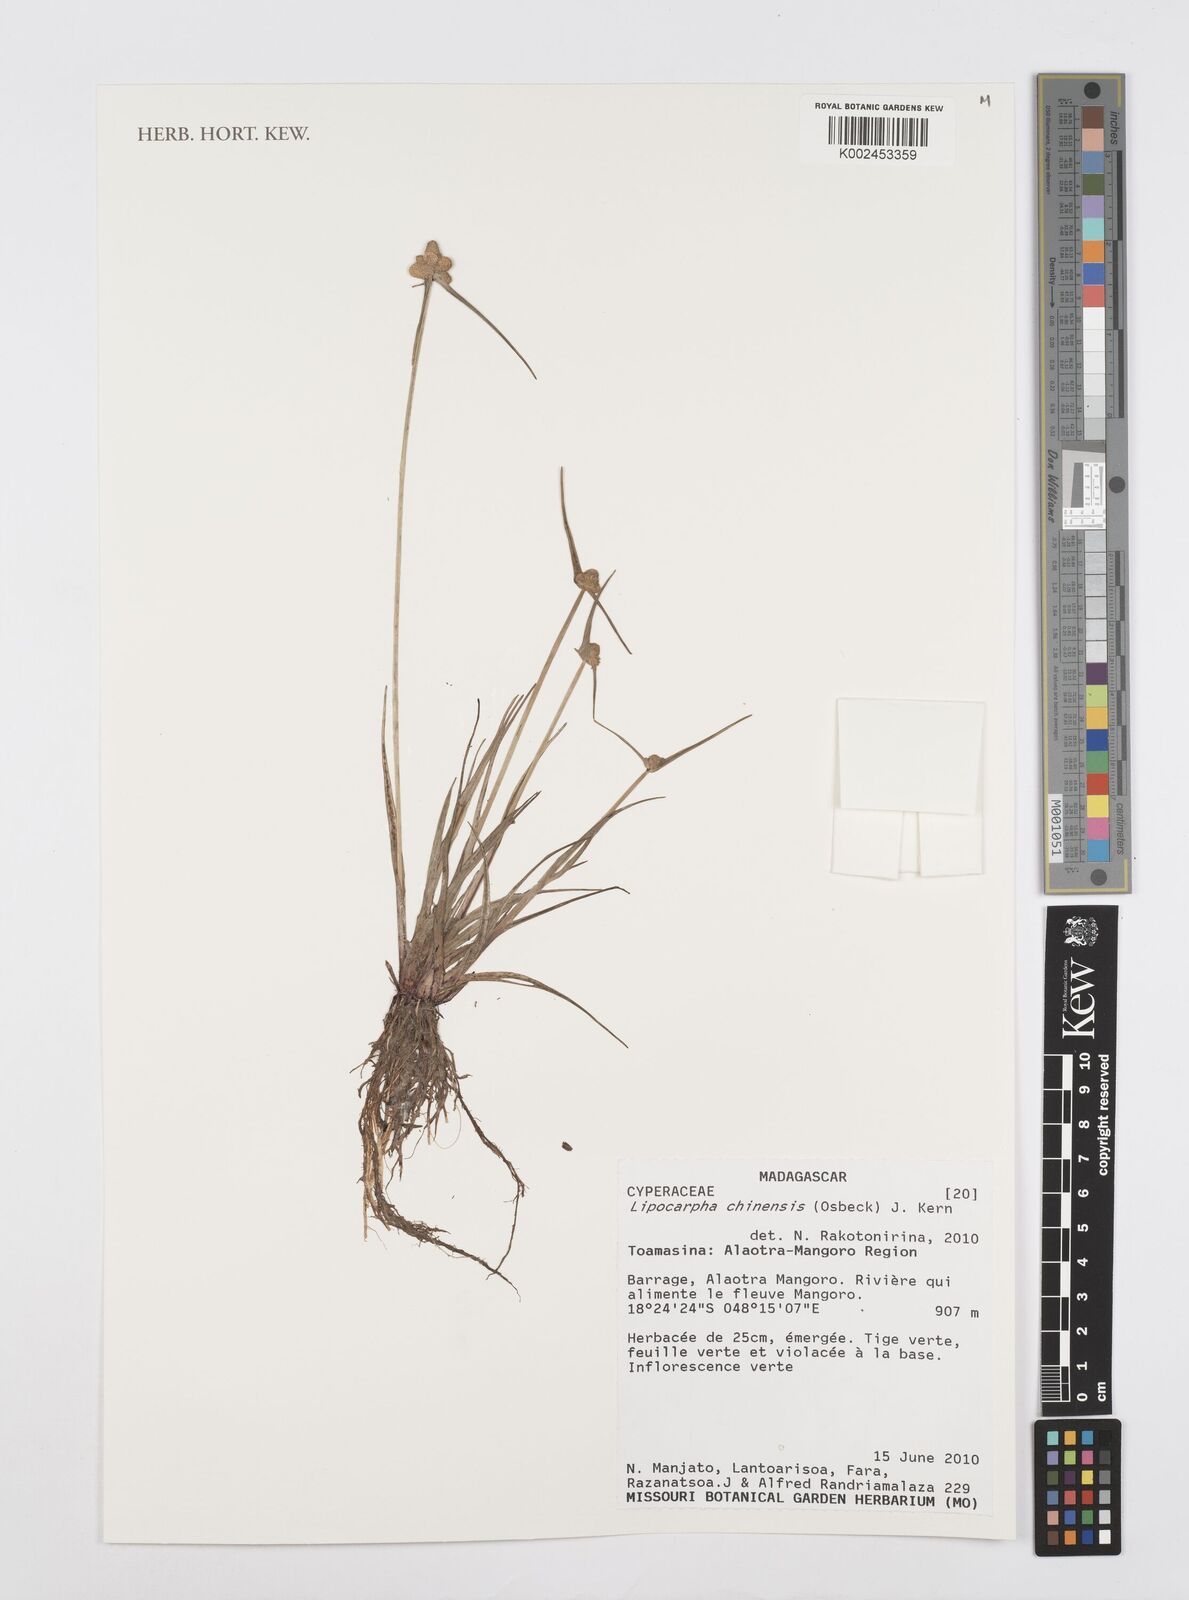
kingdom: Plantae
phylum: Tracheophyta
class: Liliopsida
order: Poales
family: Cyperaceae
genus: Cyperus
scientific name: Cyperus
